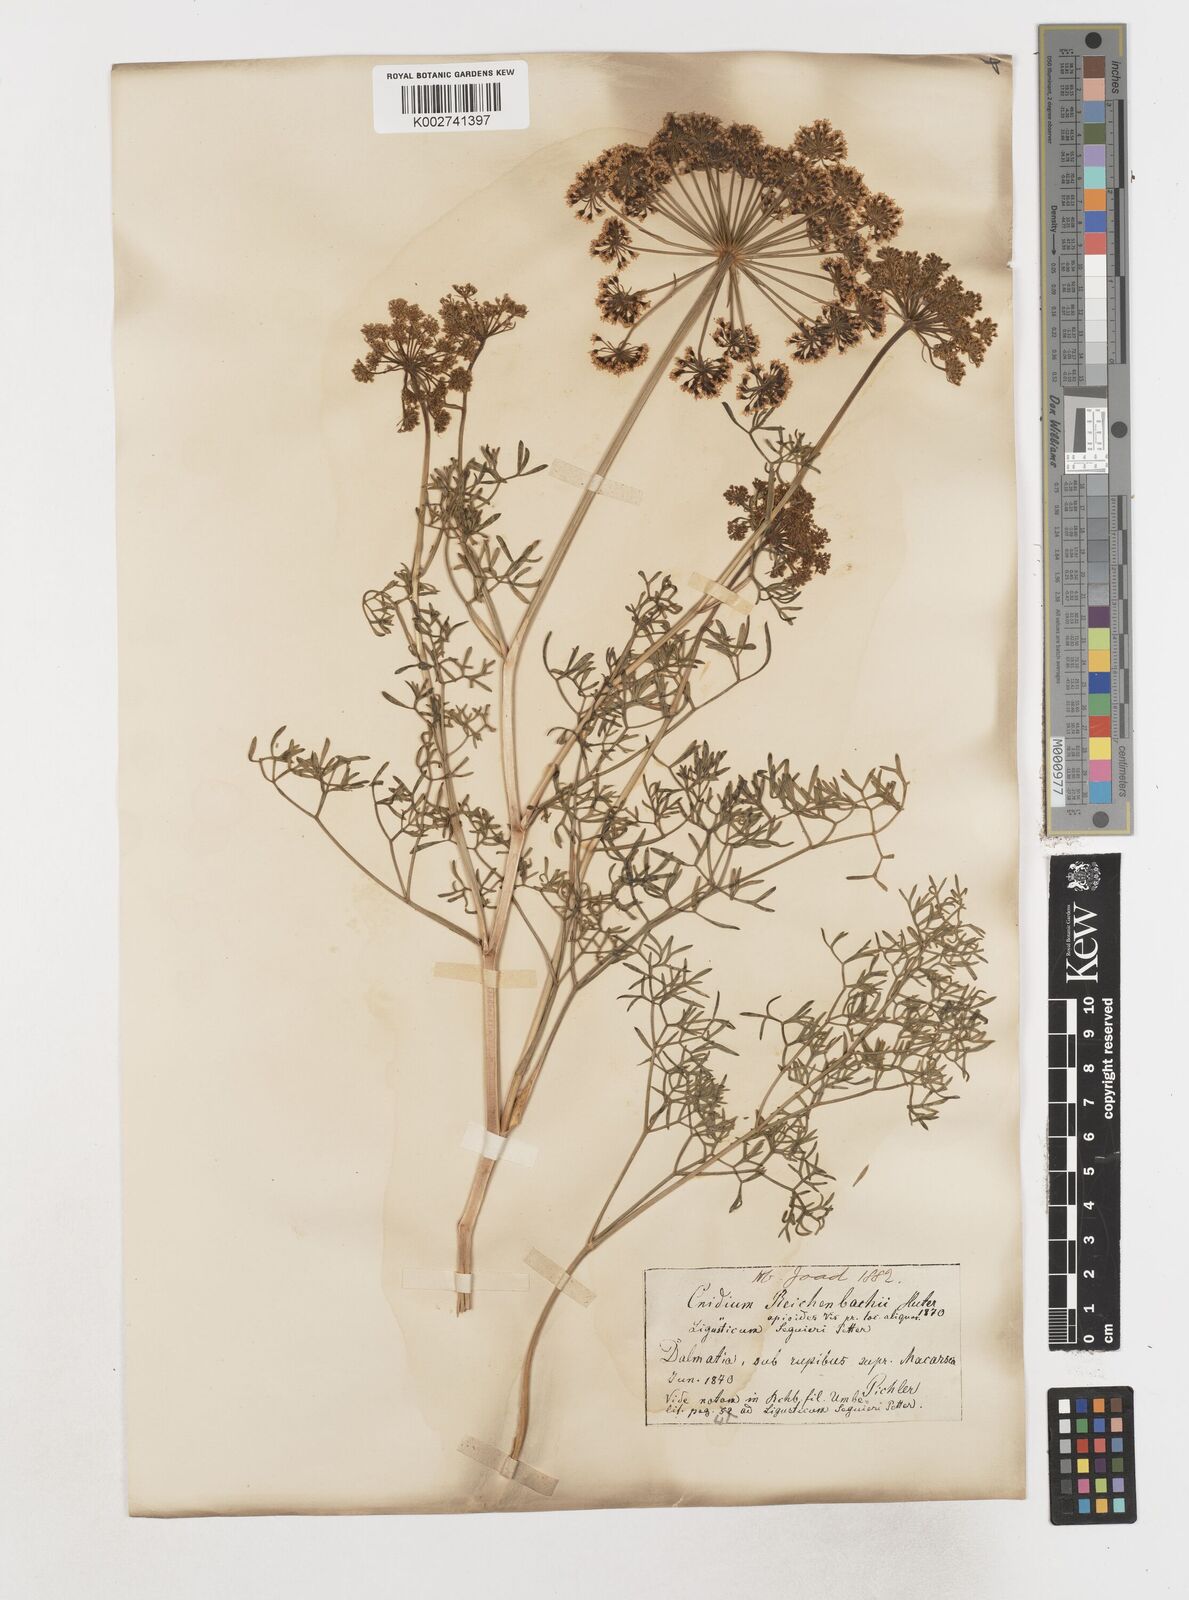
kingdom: Plantae
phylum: Tracheophyta
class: Magnoliopsida
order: Apiales
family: Apiaceae
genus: Coristospermum
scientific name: Coristospermum ferulaceum
